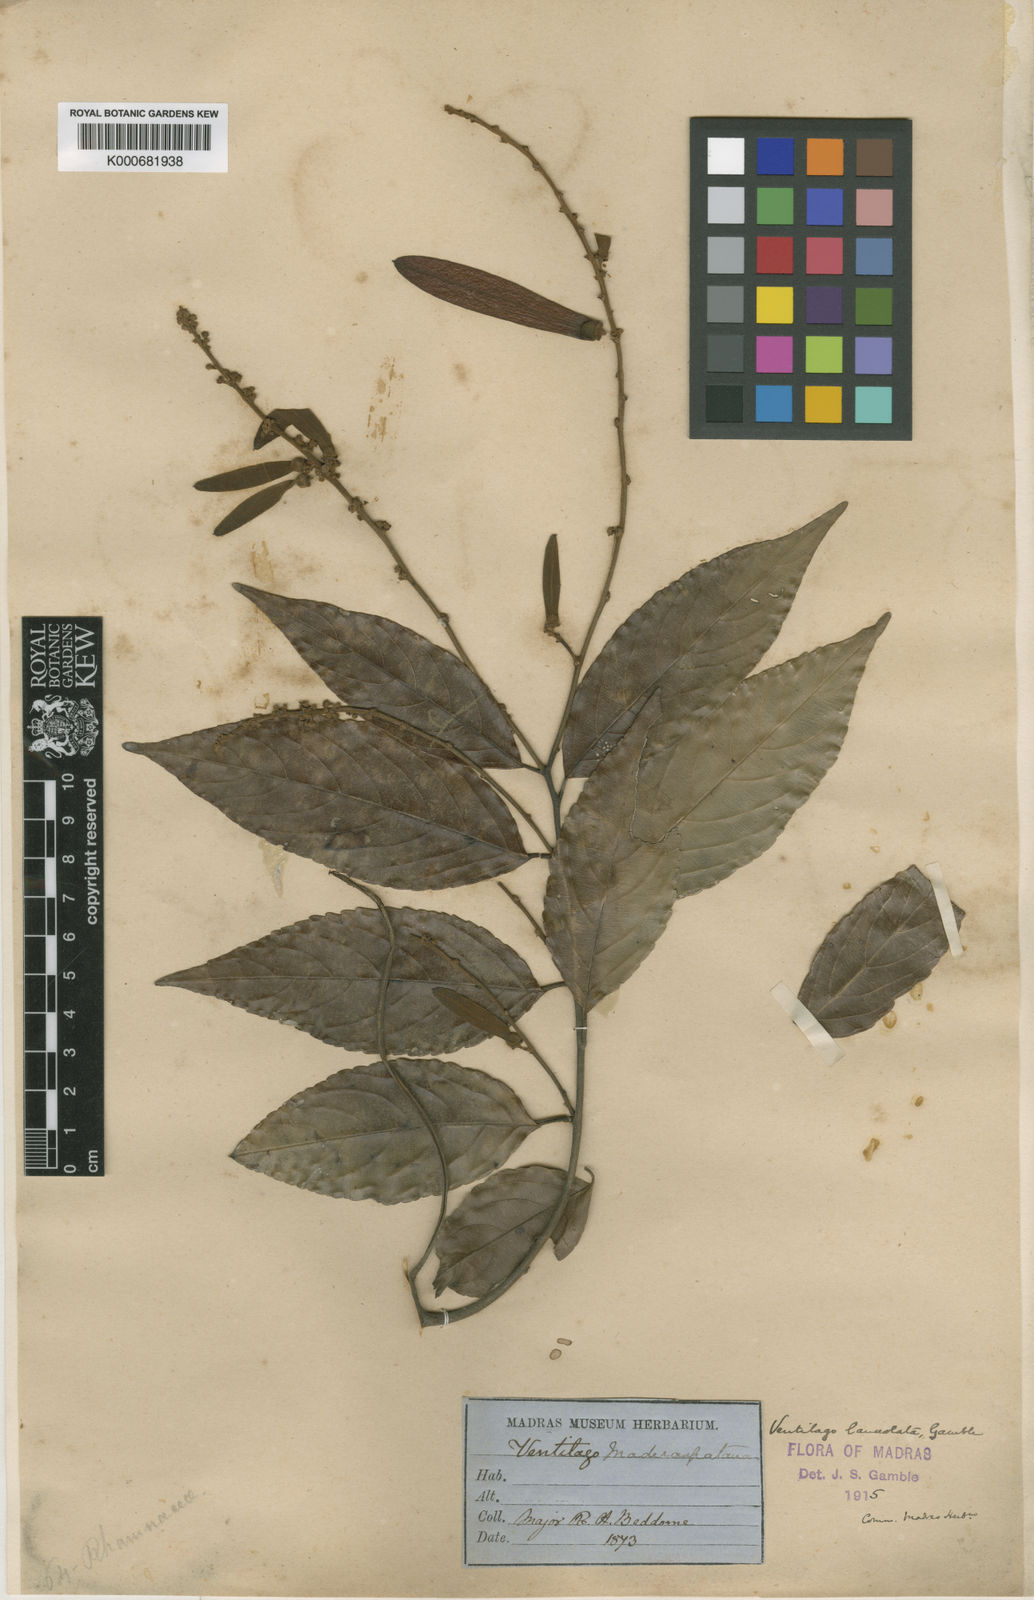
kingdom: Plantae
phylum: Tracheophyta
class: Magnoliopsida
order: Rosales
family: Rhamnaceae
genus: Ventilago
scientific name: Ventilago gamblei
